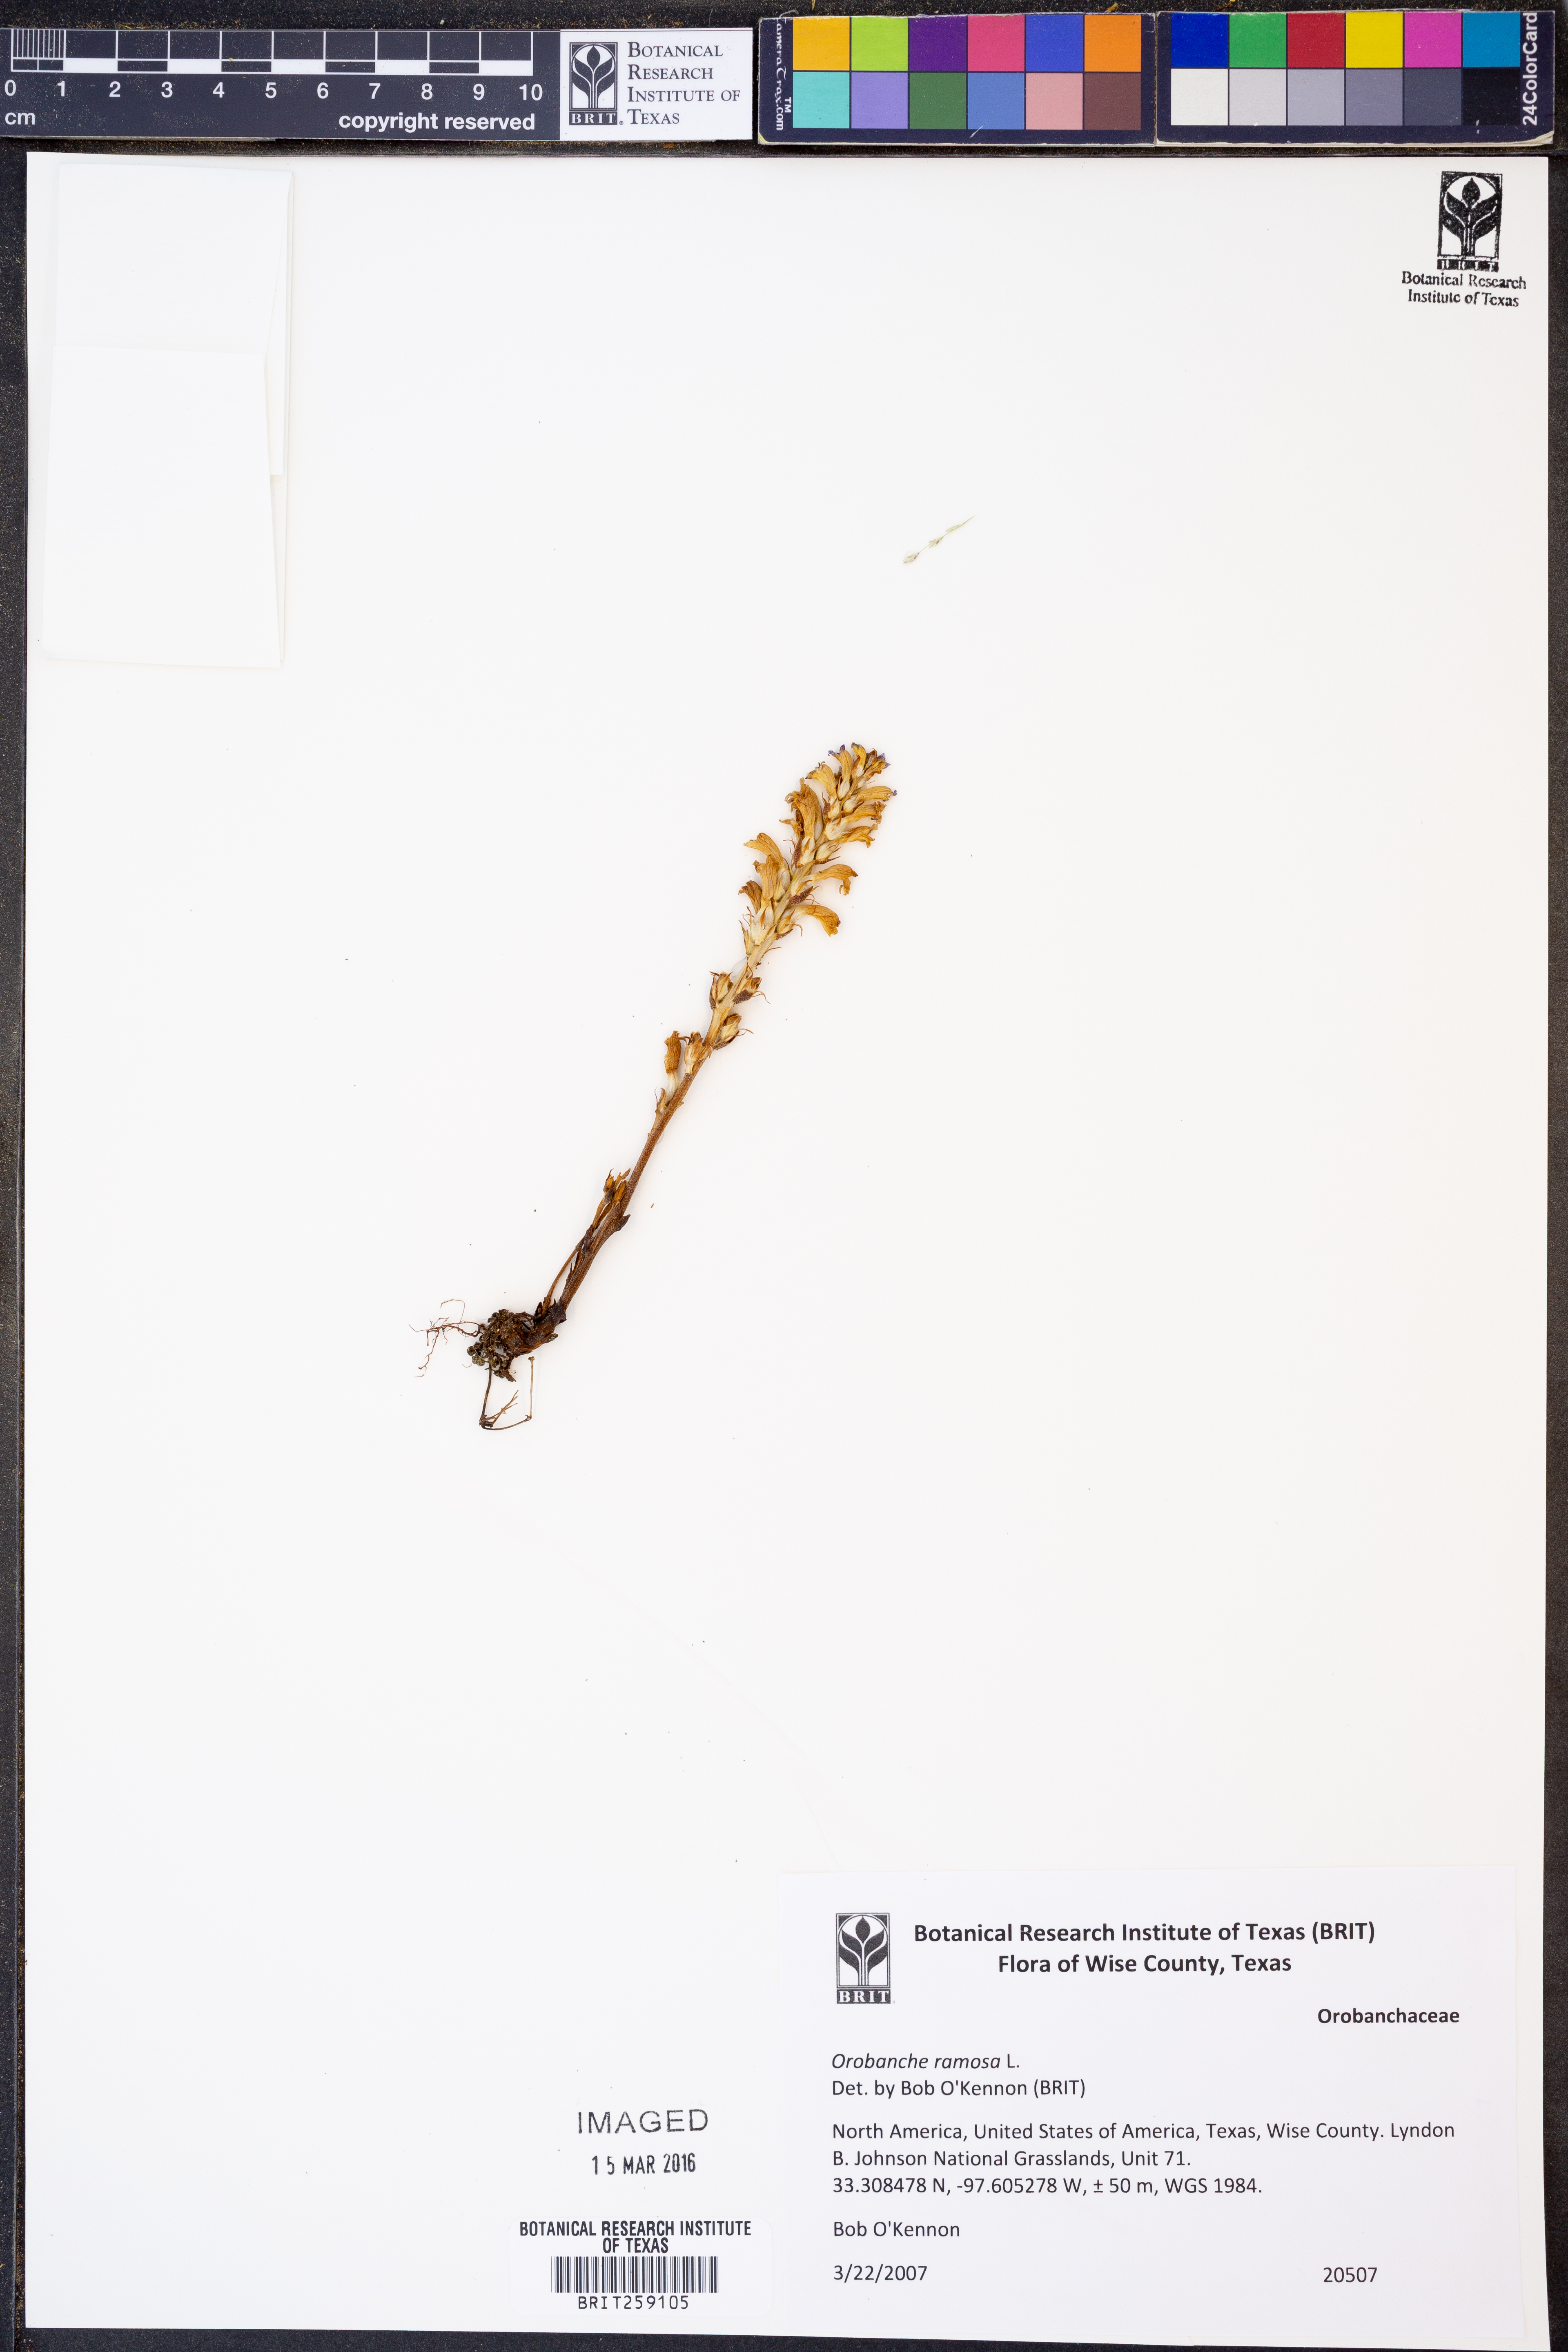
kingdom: Plantae
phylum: Tracheophyta
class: Magnoliopsida
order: Lamiales
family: Orobanchaceae
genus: Phelipanche
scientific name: Phelipanche ramosa
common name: Branched broomrape
